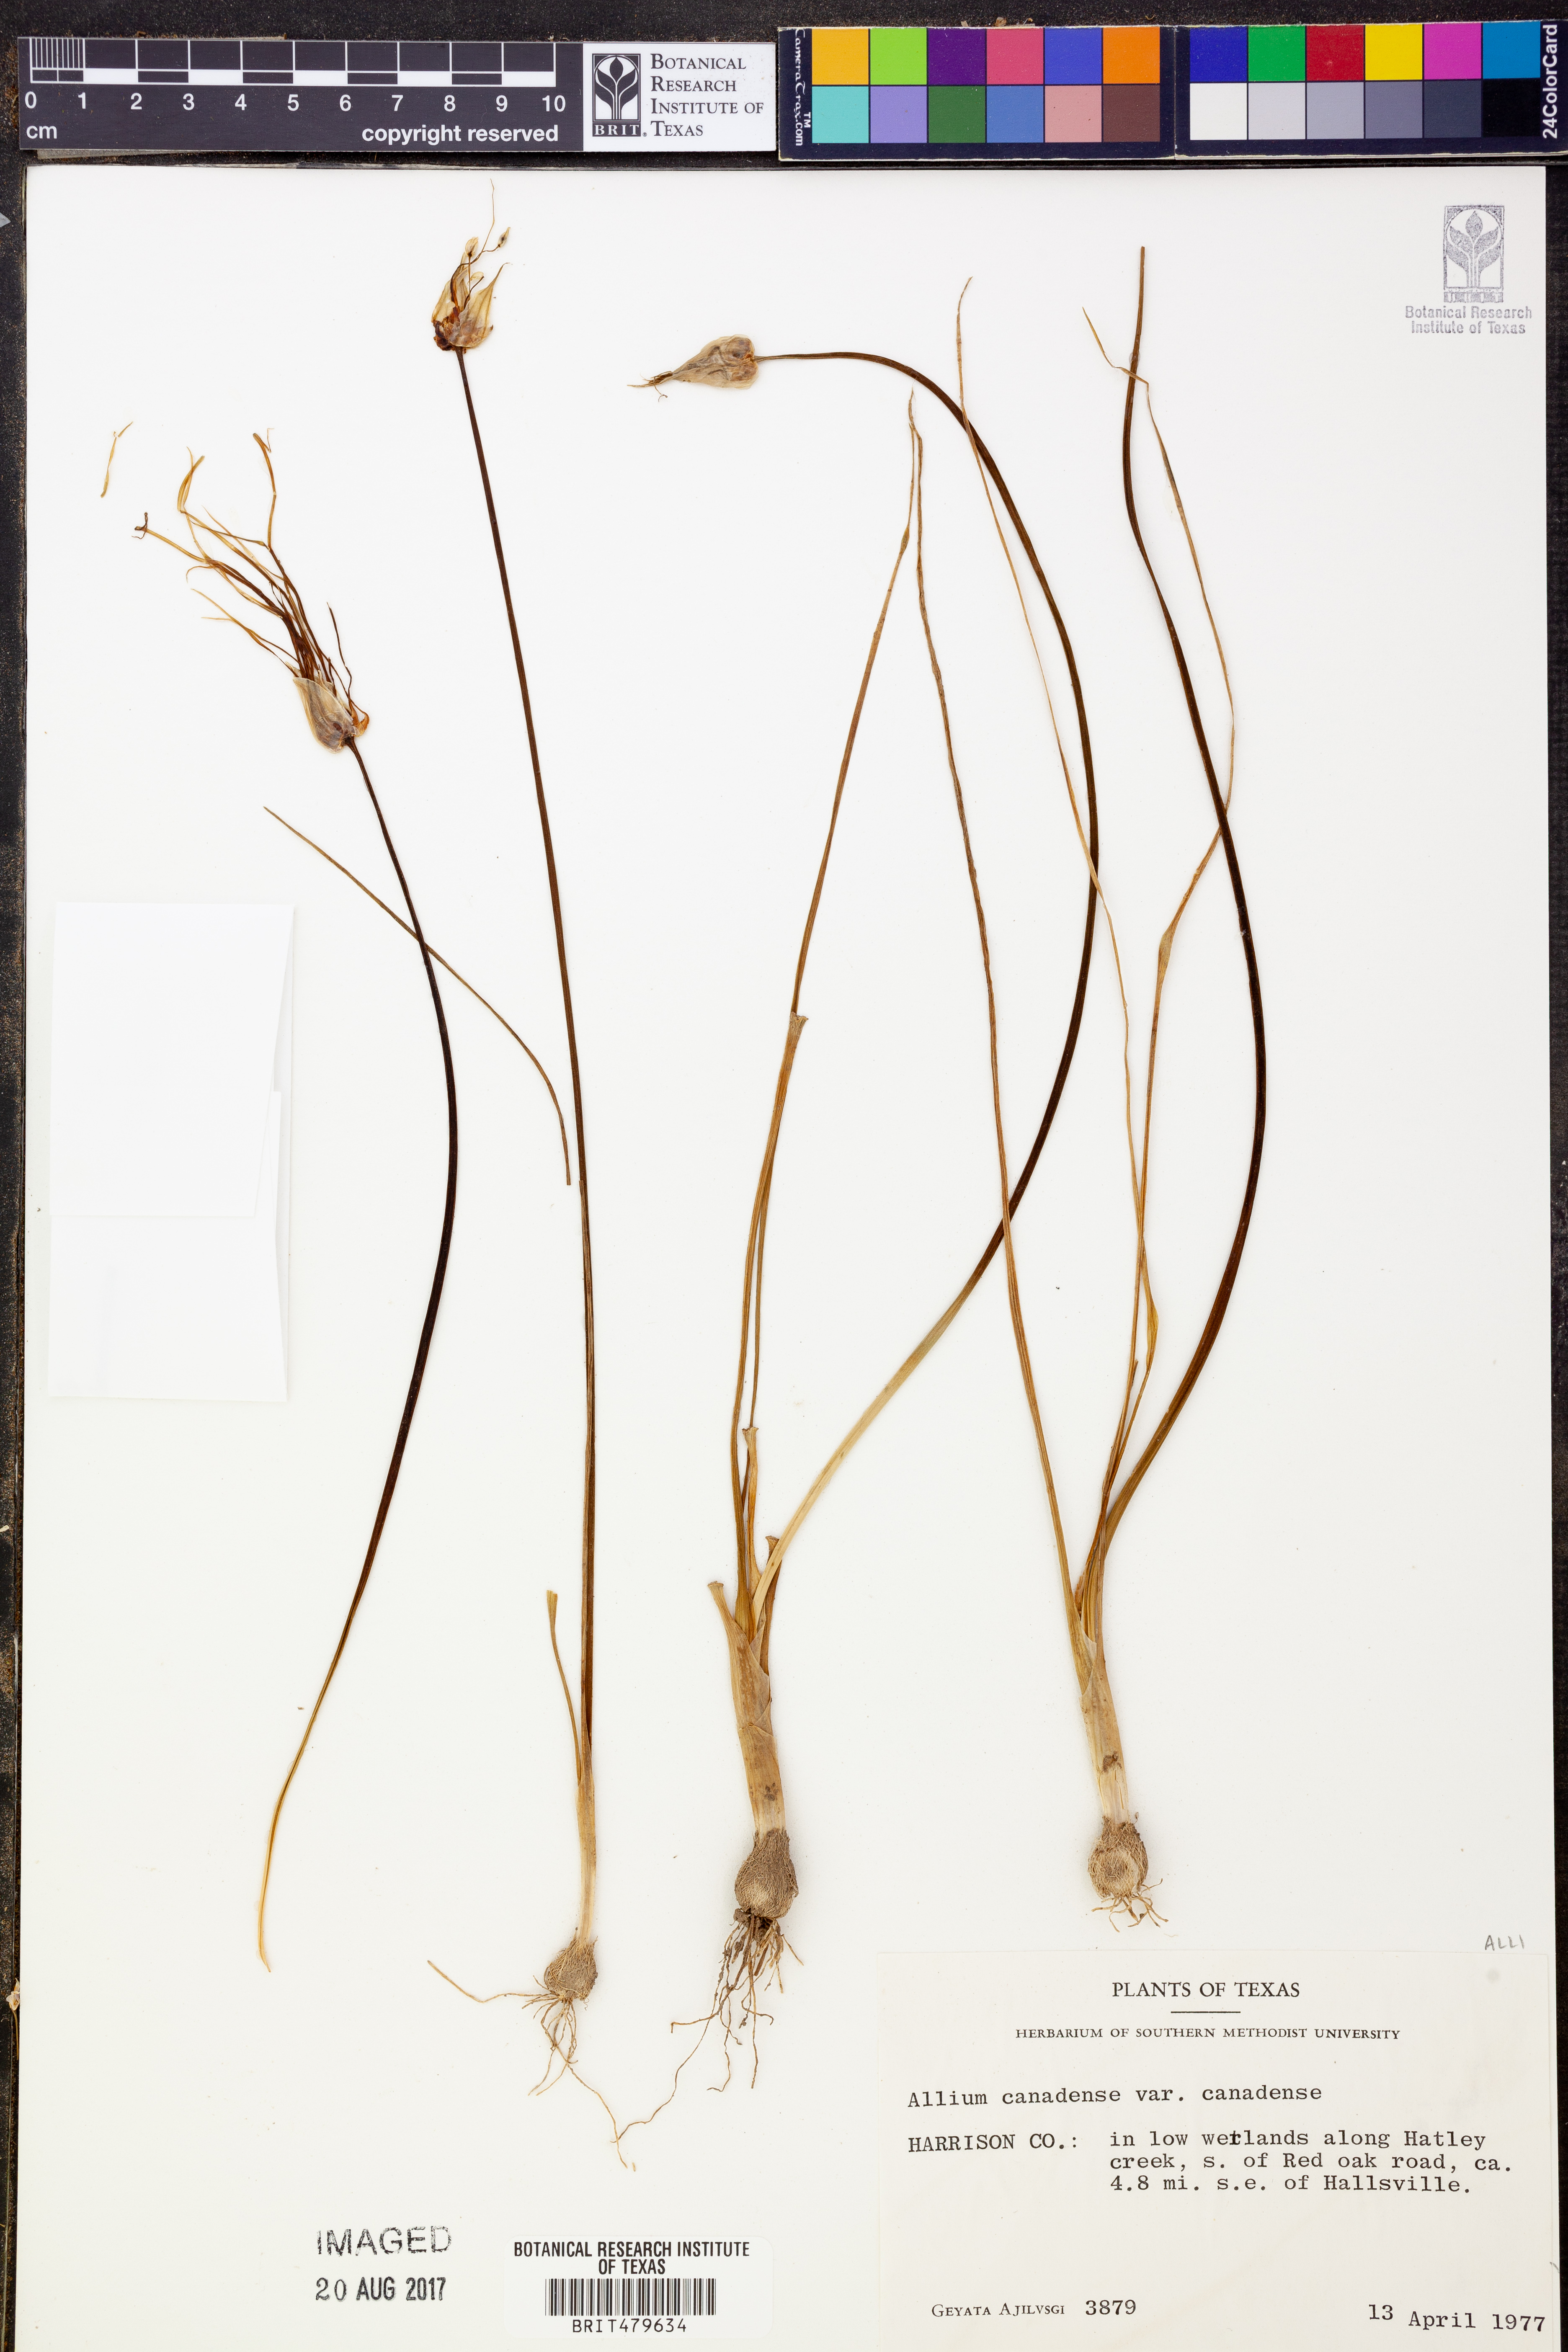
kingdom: Plantae
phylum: Tracheophyta
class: Liliopsida
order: Asparagales
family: Amaryllidaceae
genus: Allium
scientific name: Allium canadense
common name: Meadow garlic
